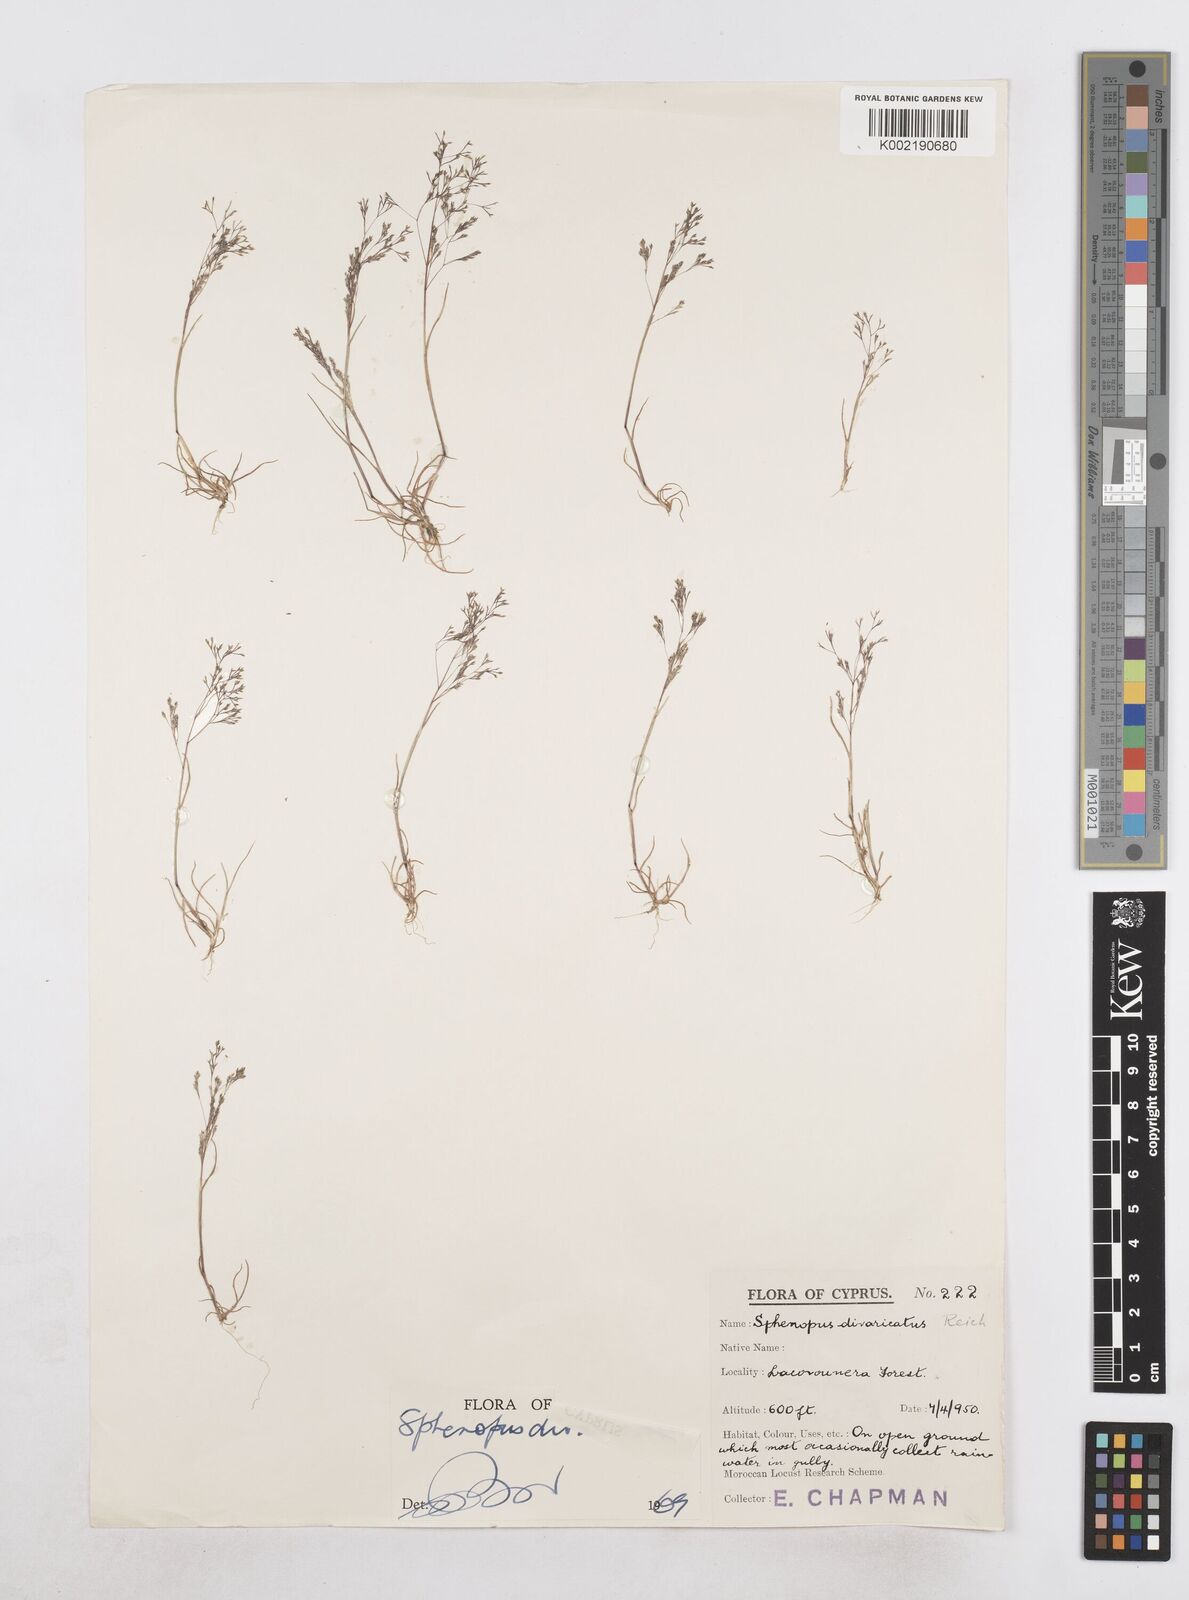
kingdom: Plantae
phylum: Tracheophyta
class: Liliopsida
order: Poales
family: Poaceae
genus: Sphenopus
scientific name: Sphenopus divaricatus
